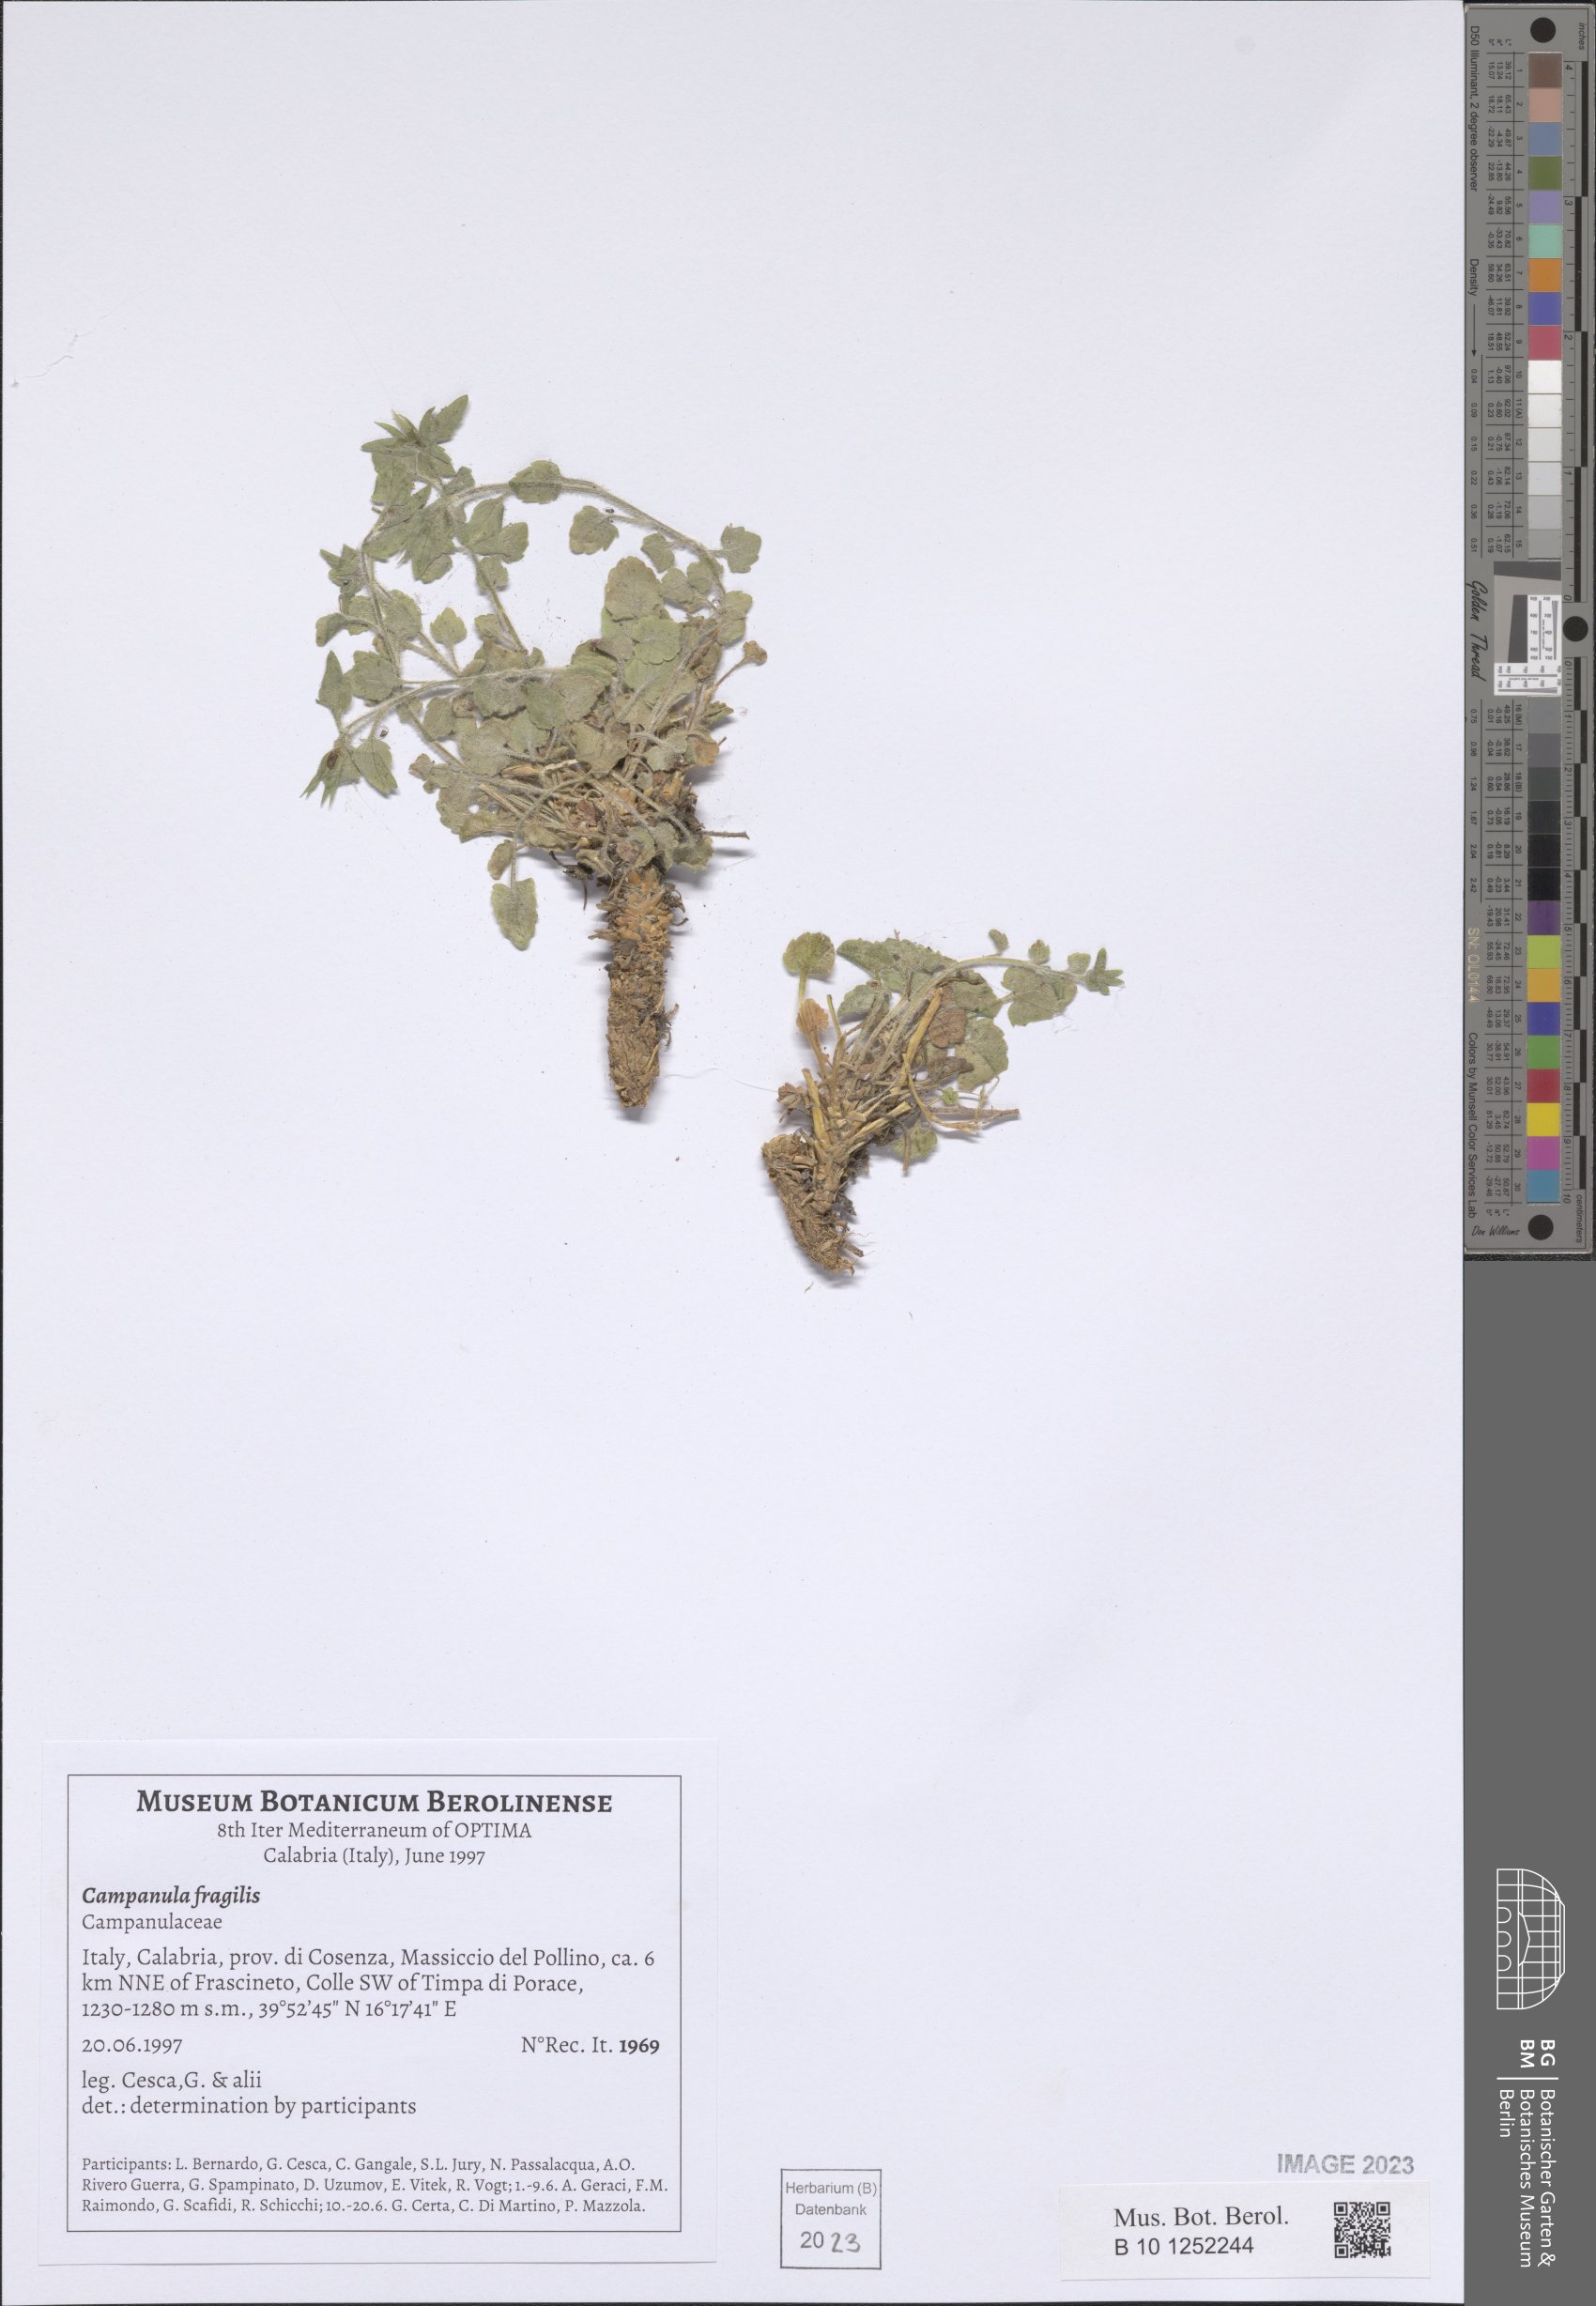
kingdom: Plantae
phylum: Tracheophyta
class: Magnoliopsida
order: Asterales
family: Campanulaceae
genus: Campanula
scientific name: Campanula fragilis
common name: Italian bellflower
